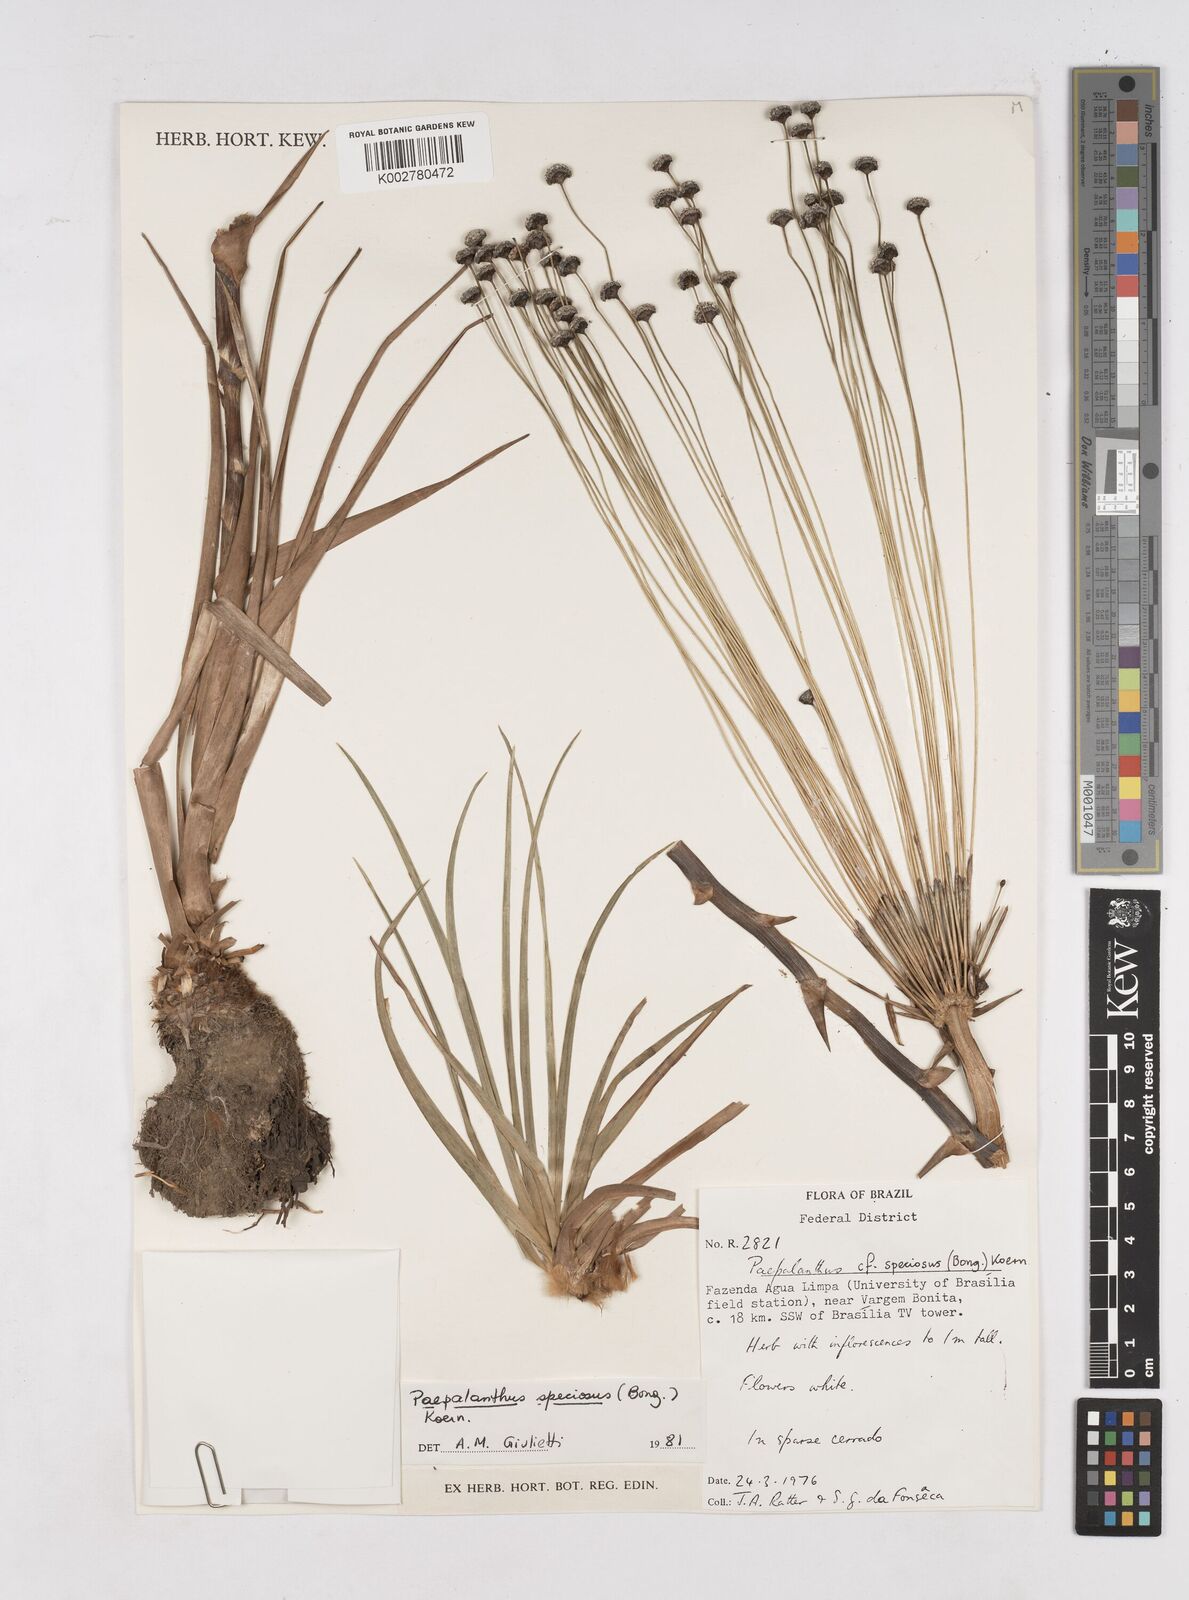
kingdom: Plantae
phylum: Tracheophyta
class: Liliopsida
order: Poales
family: Eriocaulaceae
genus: Paepalanthus
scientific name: Paepalanthus chiquitensis
